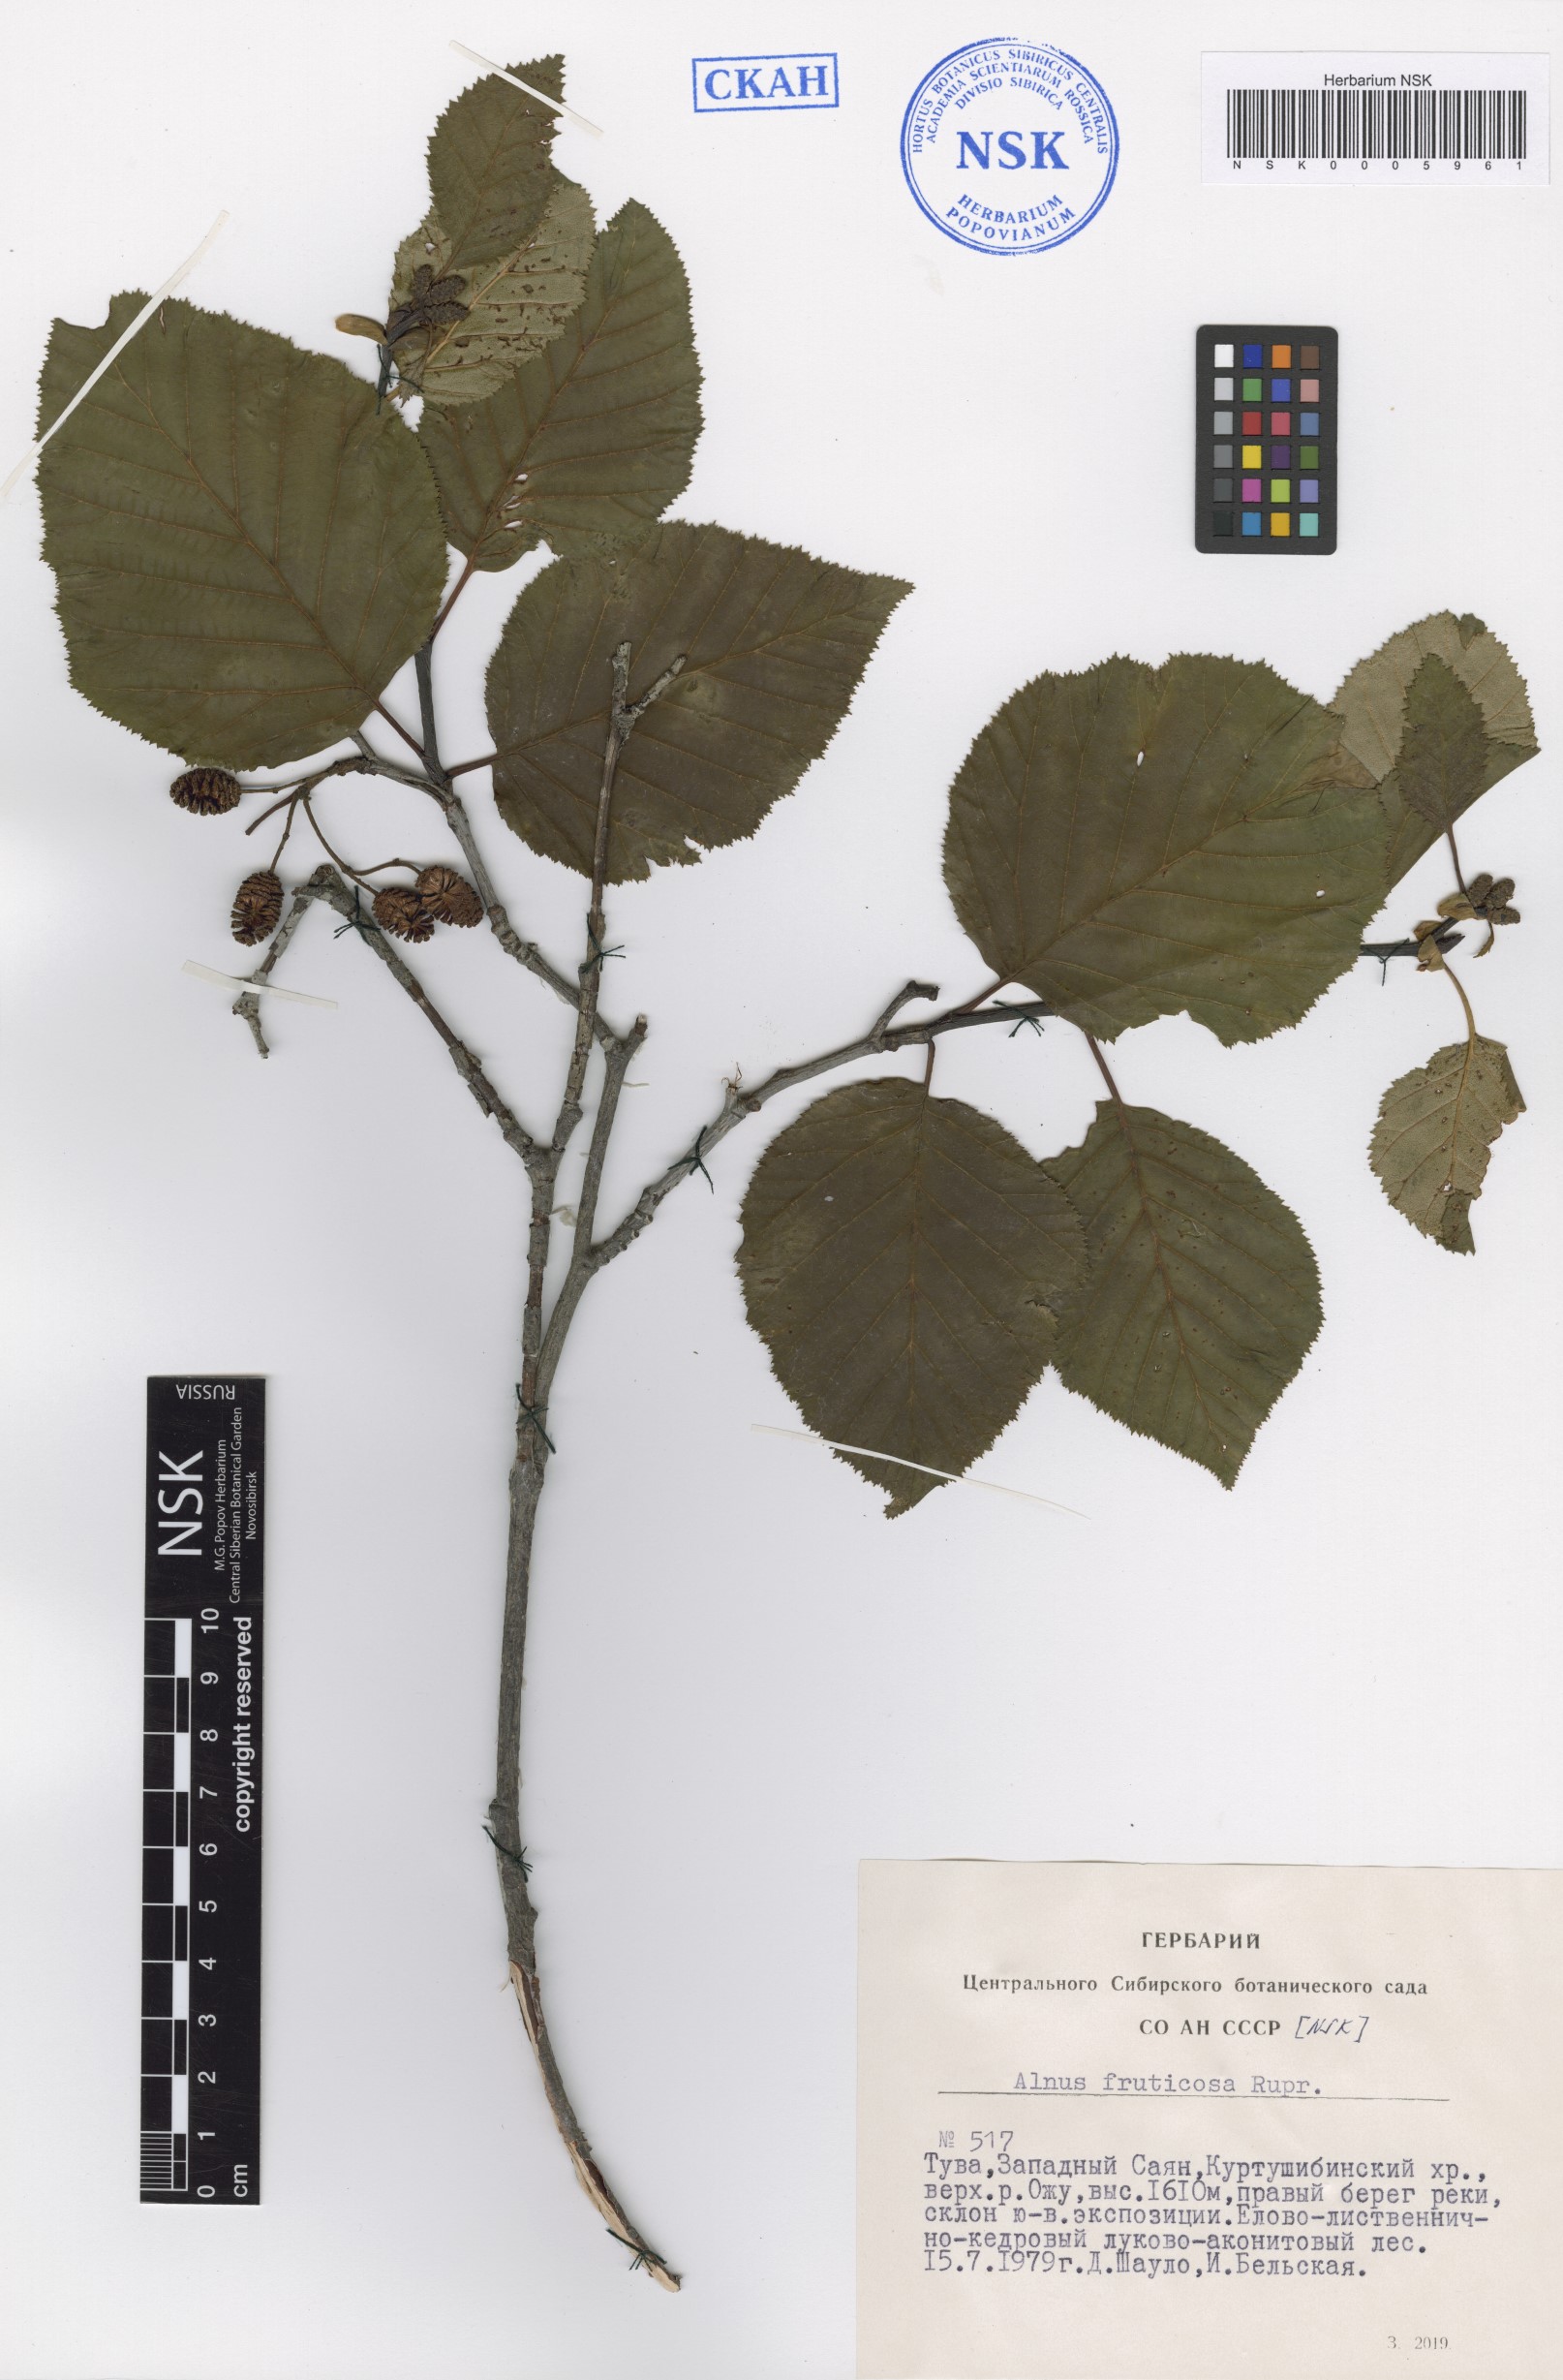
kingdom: Plantae
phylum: Tracheophyta
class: Magnoliopsida
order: Fagales
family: Betulaceae
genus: Alnus
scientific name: Alnus alnobetula
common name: Green alder
